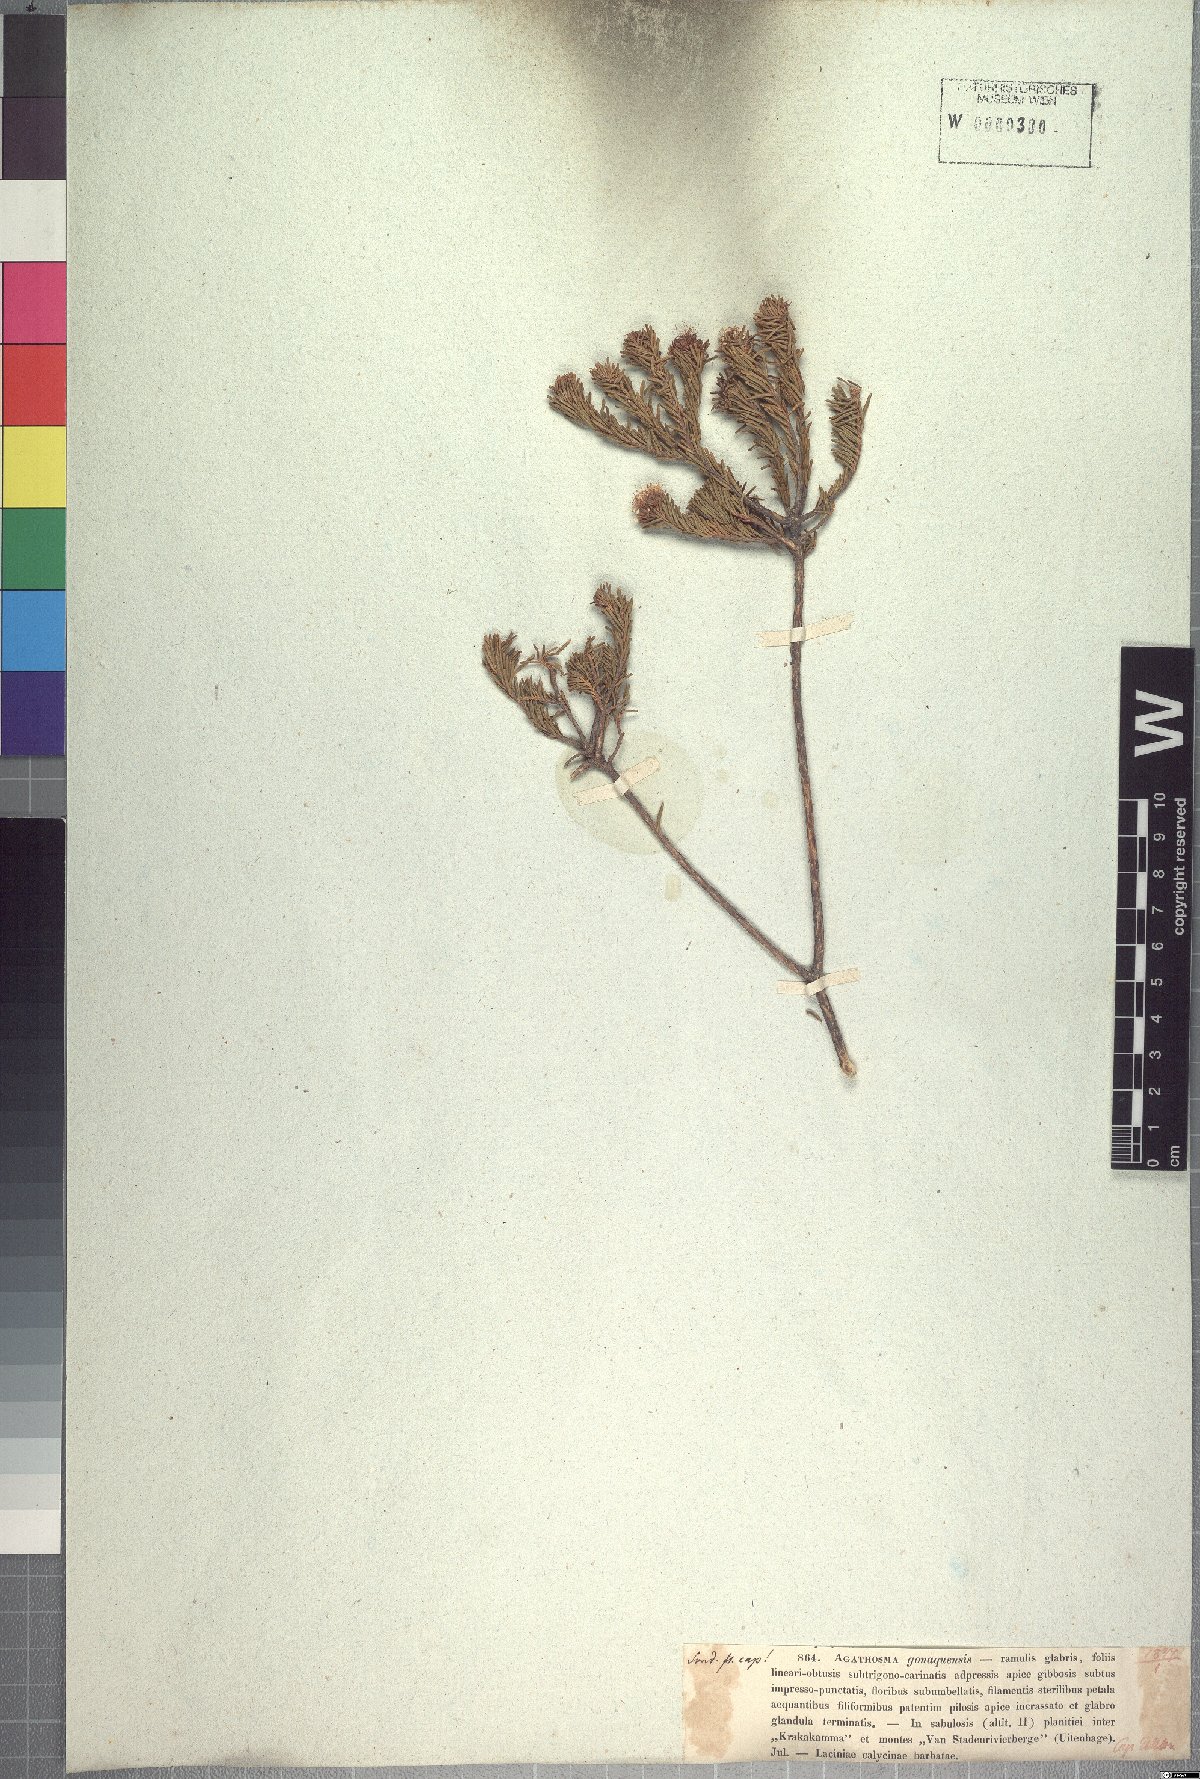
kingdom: Plantae
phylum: Tracheophyta
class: Magnoliopsida
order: Sapindales
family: Rutaceae
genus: Agathosma
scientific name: Agathosma gonaquensis
